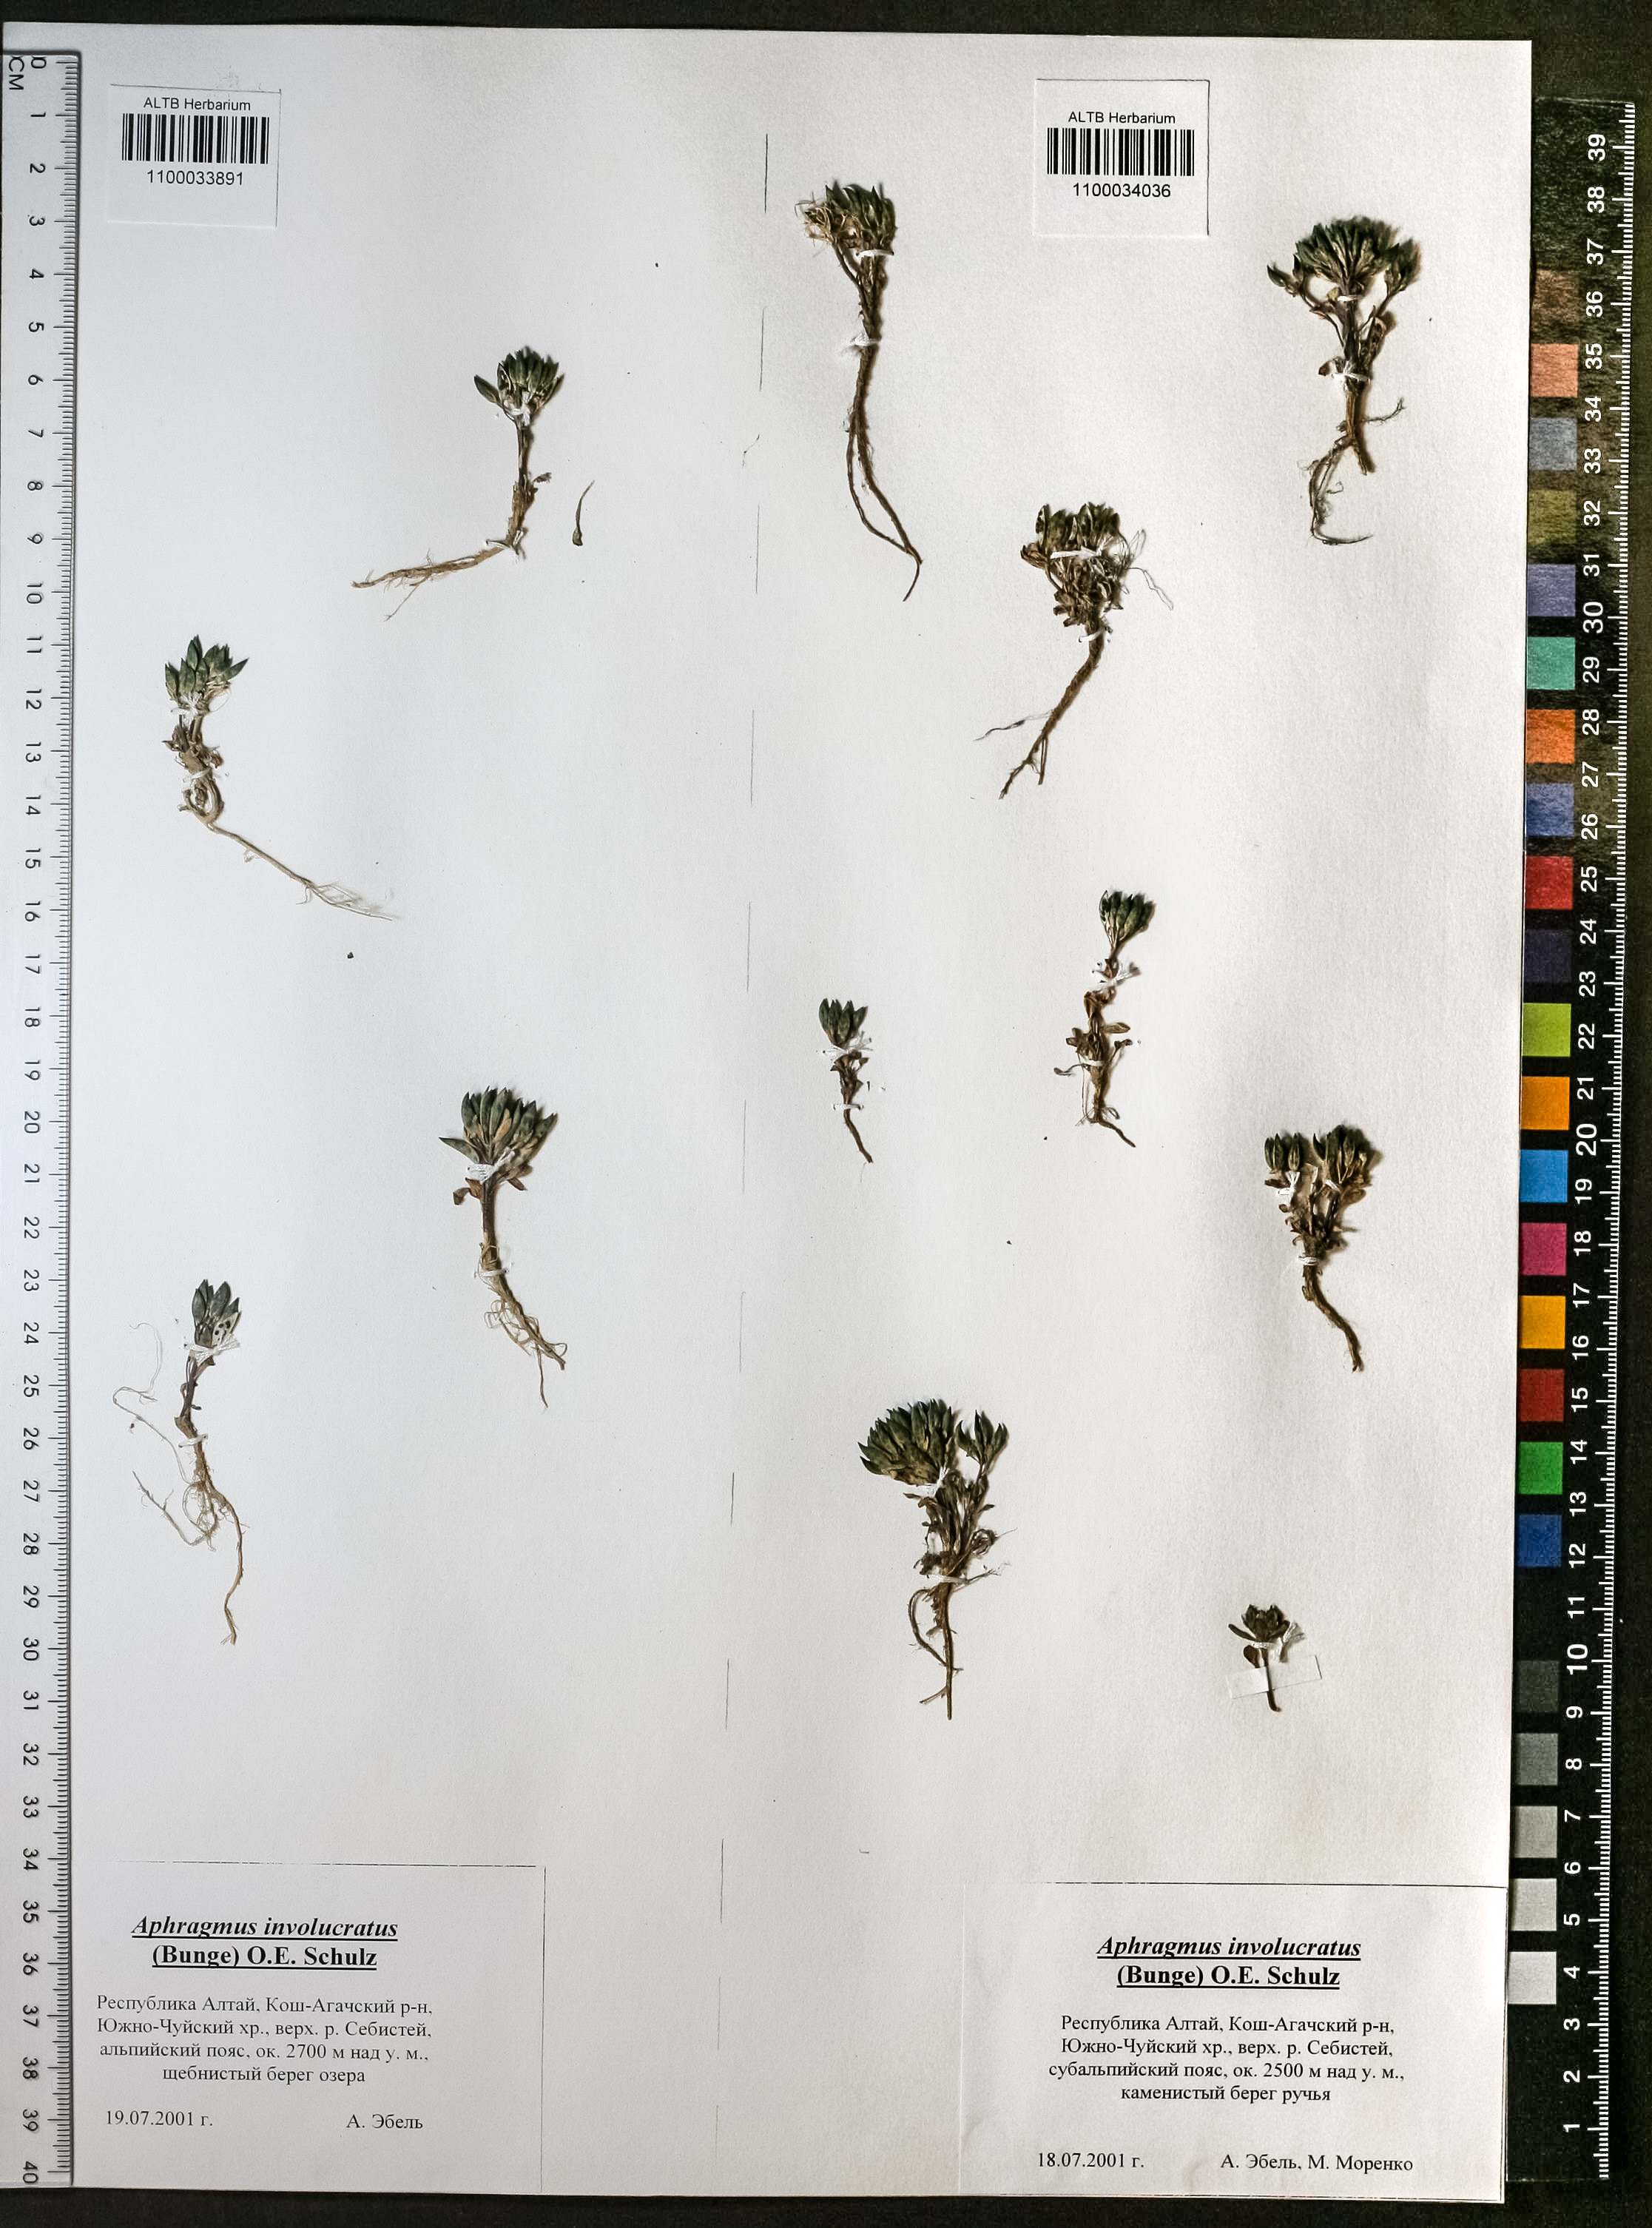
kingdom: Plantae
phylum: Tracheophyta
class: Magnoliopsida
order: Brassicales
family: Brassicaceae
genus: Aphragmus
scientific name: Aphragmus involucratus
